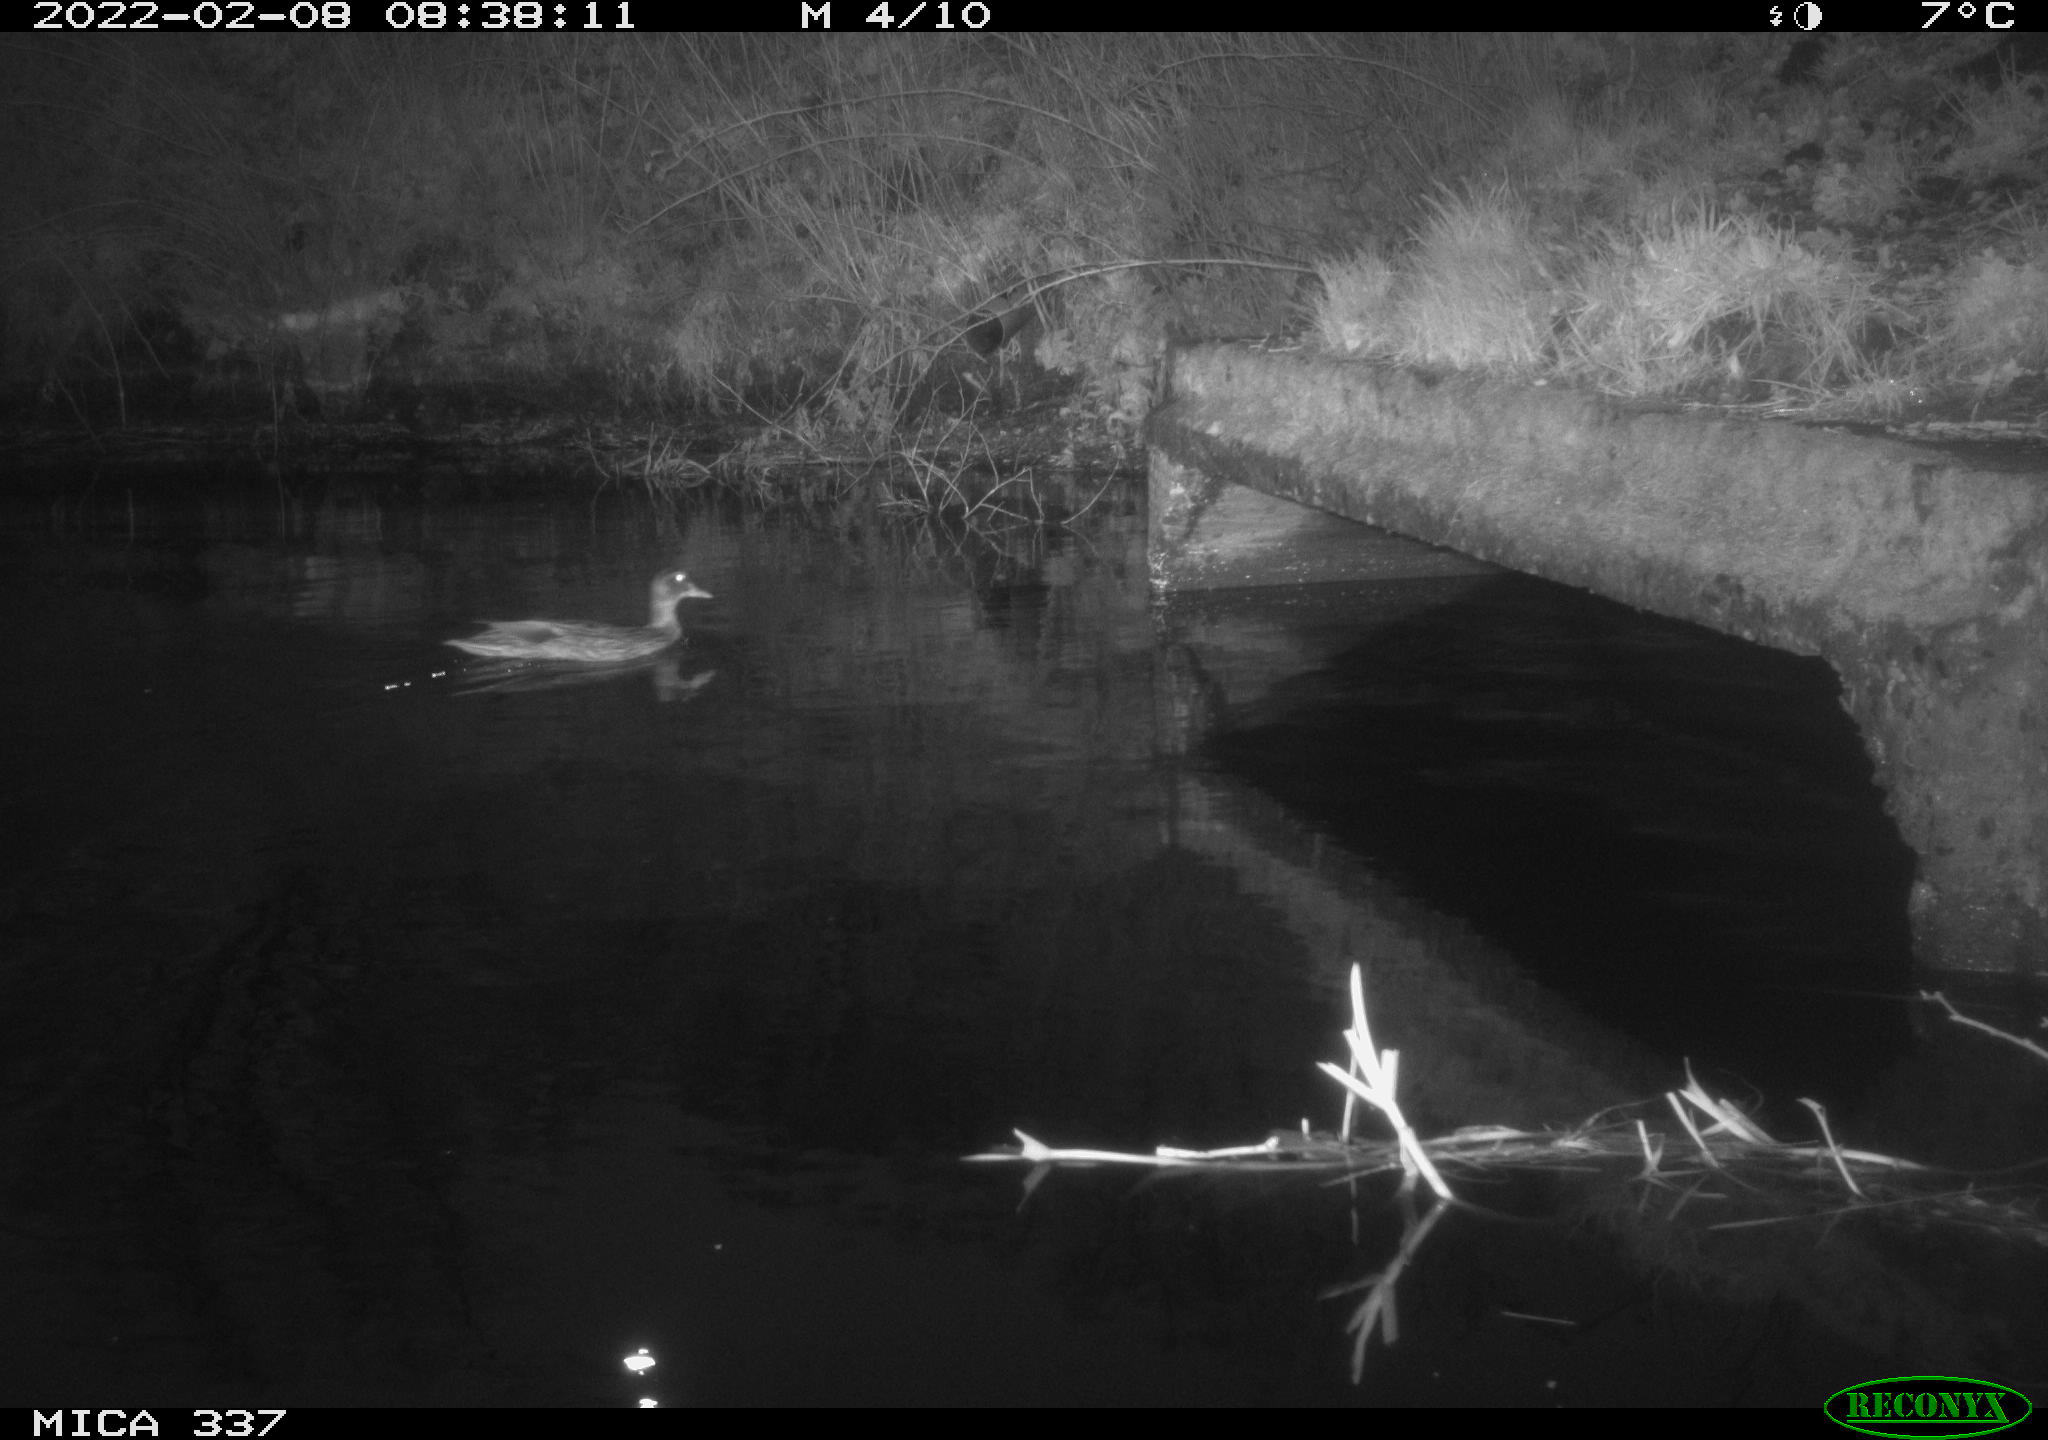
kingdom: Animalia
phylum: Chordata
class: Aves
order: Anseriformes
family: Anatidae
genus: Anas
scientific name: Anas platyrhynchos
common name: Mallard
